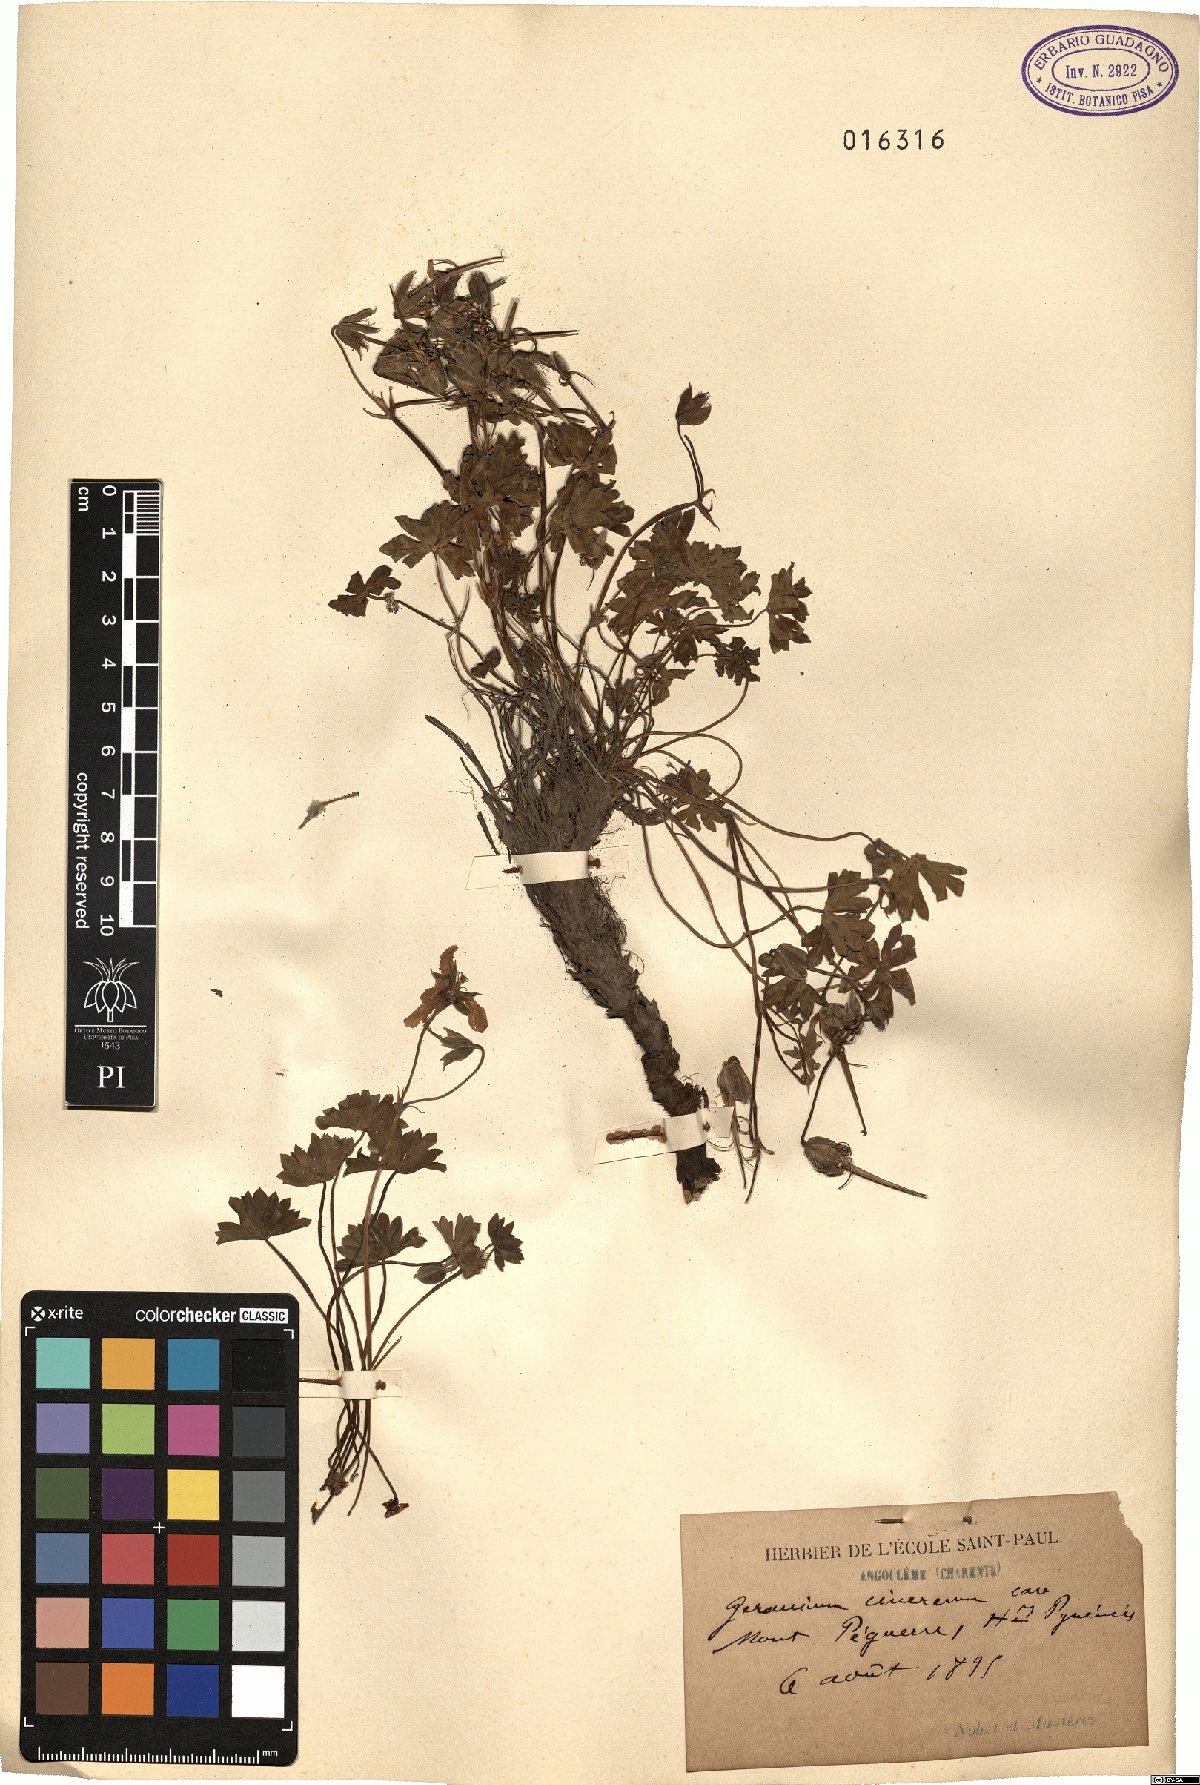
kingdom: Plantae
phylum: Tracheophyta
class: Magnoliopsida
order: Geraniales
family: Geraniaceae
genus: Geranium
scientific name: Geranium cinereum
